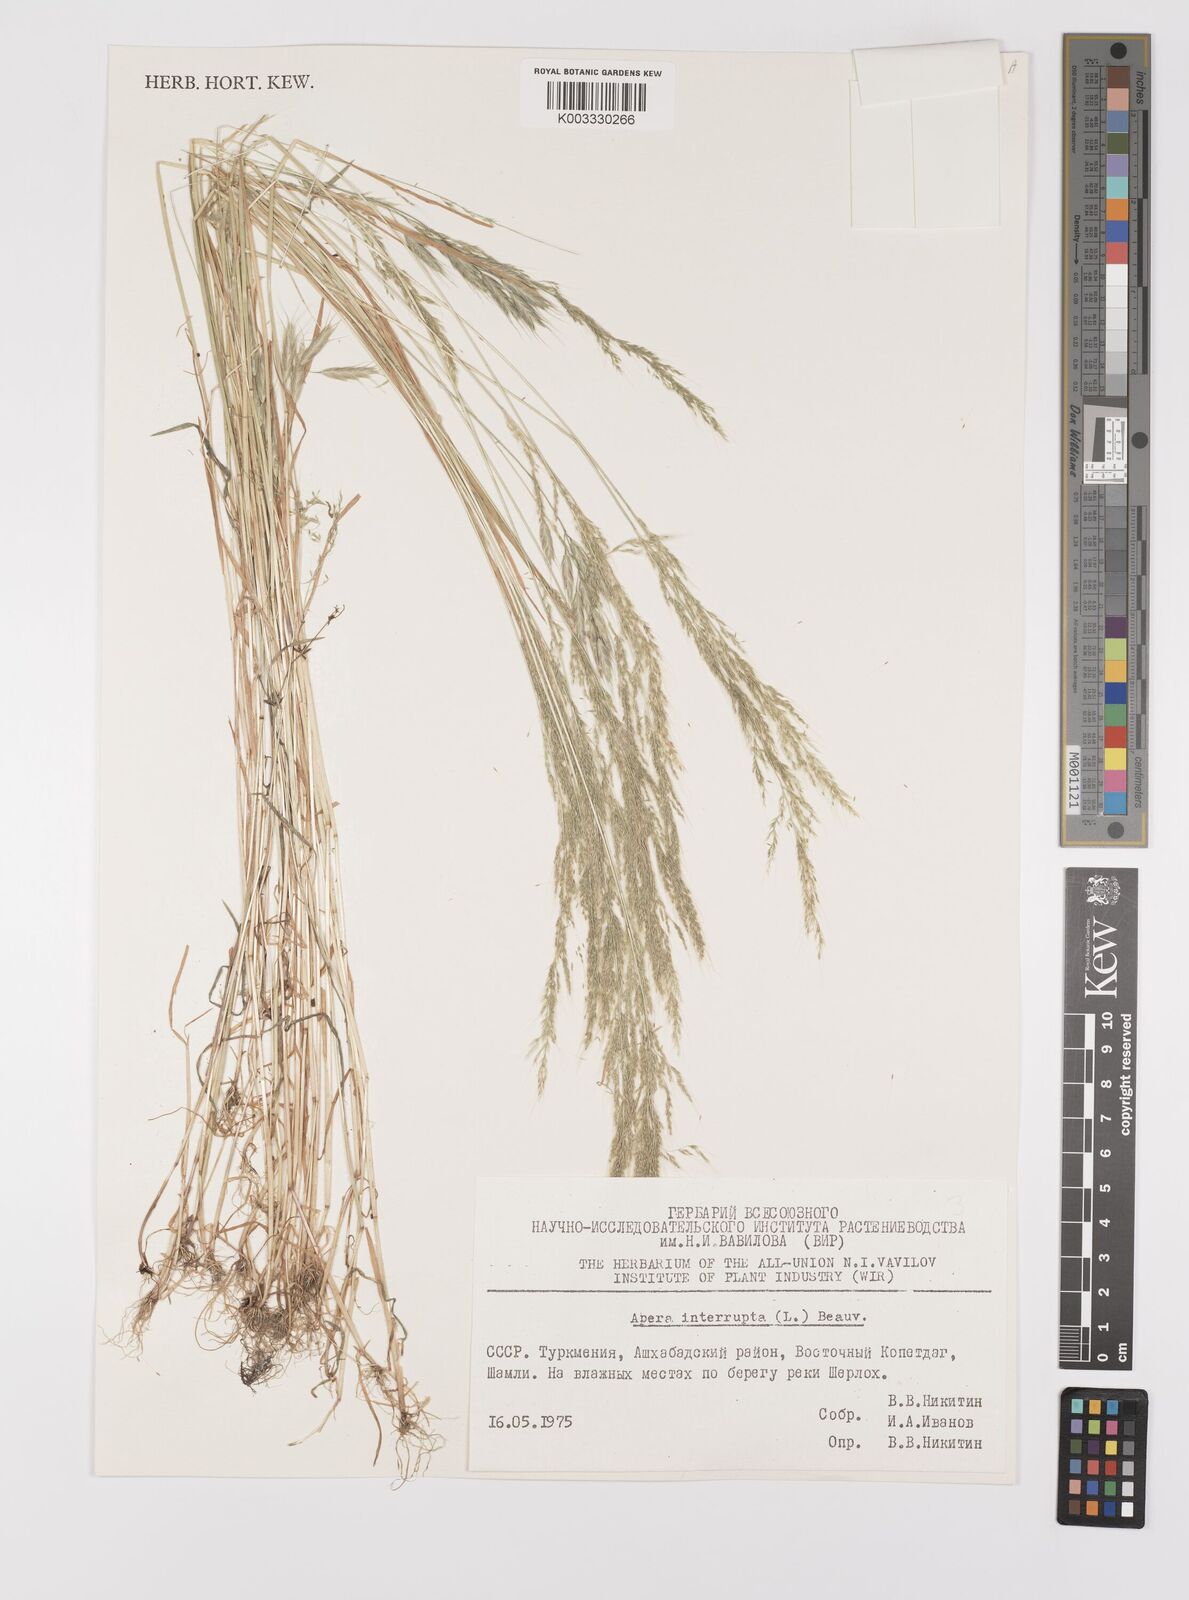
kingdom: Plantae
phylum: Tracheophyta
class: Liliopsida
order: Poales
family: Poaceae
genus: Apera
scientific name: Apera interrupta
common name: Dense silky-bent
